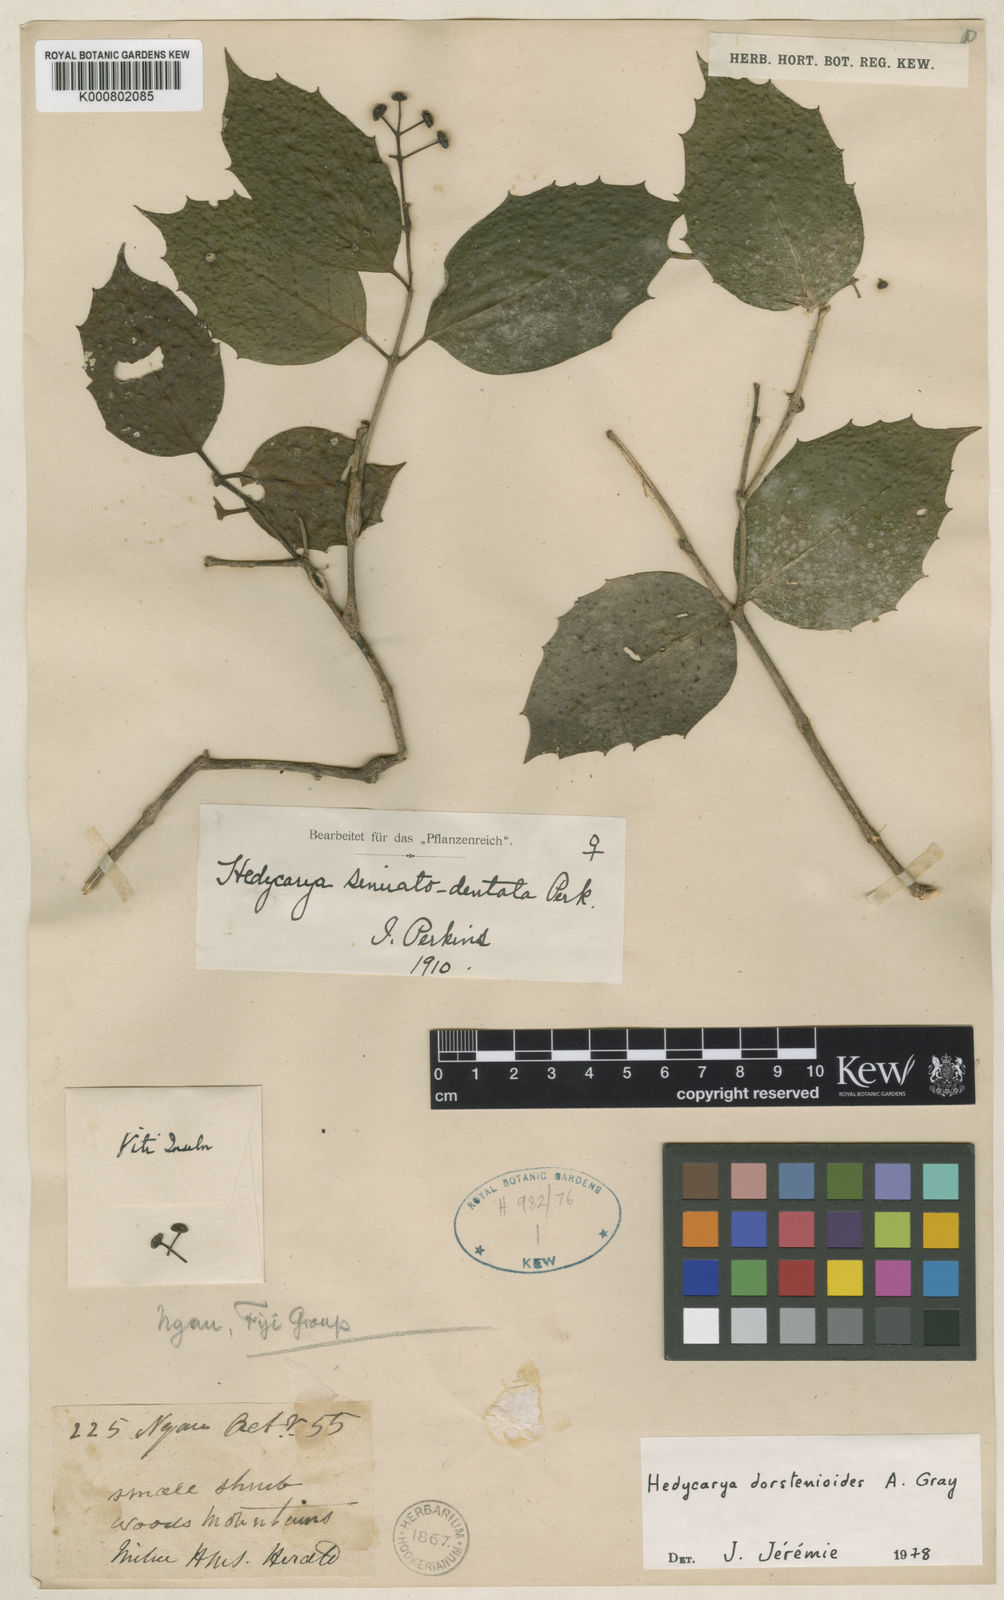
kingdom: Plantae
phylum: Tracheophyta
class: Magnoliopsida
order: Laurales
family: Monimiaceae
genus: Hedycarya
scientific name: Hedycarya dorstenioides
